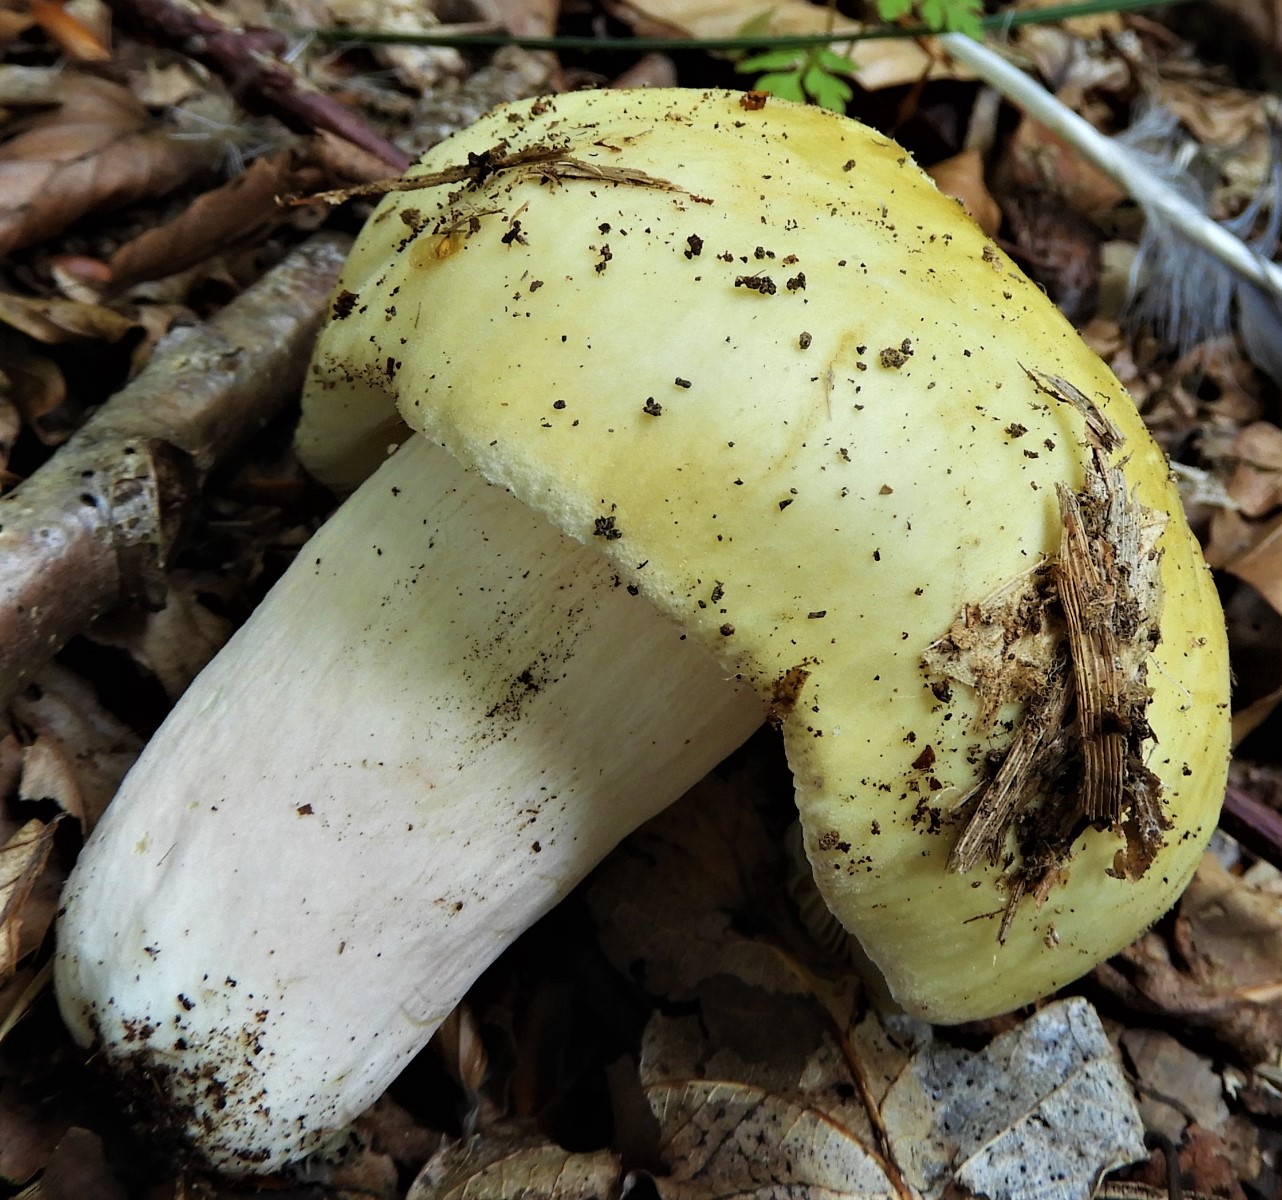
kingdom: Fungi
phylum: Basidiomycota
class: Agaricomycetes
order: Russulales
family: Russulaceae
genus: Russula
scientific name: Russula violeipes
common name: ferskengul skørhat
